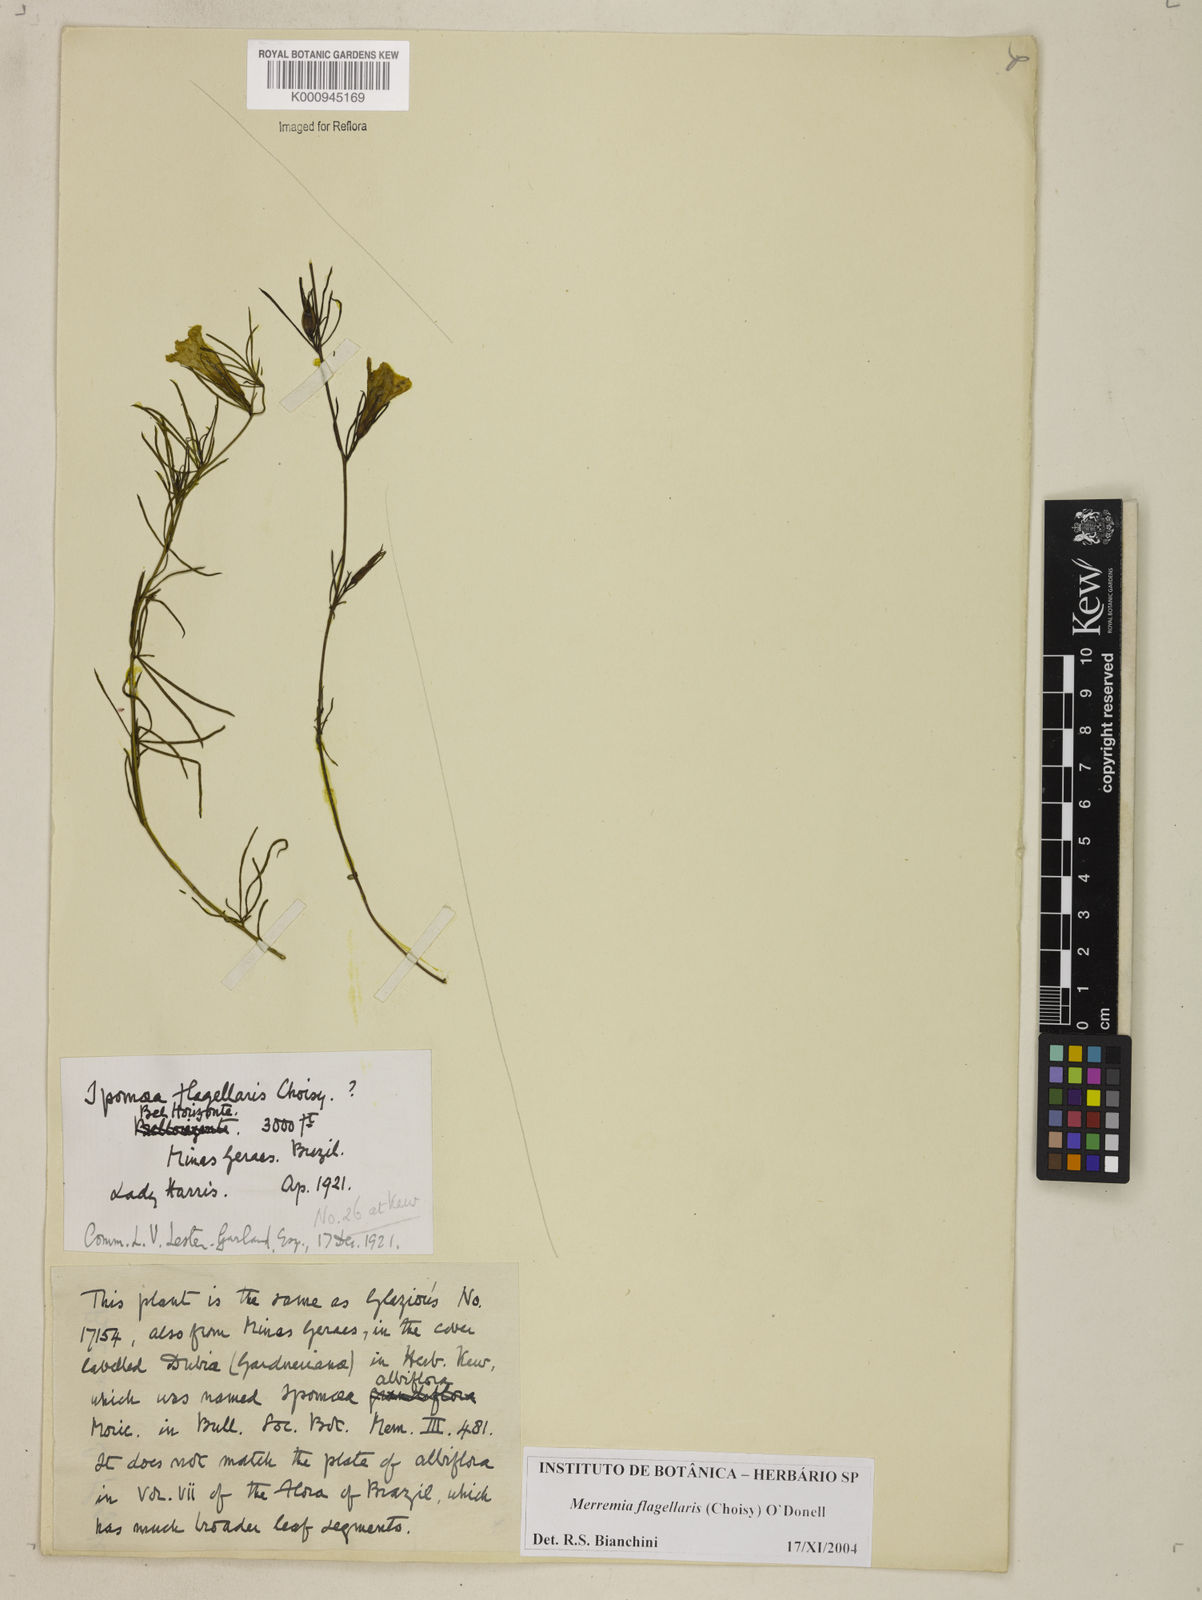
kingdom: Plantae
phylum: Tracheophyta
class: Magnoliopsida
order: Solanales
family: Convolvulaceae
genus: Distimake
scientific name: Distimake flagellaris
